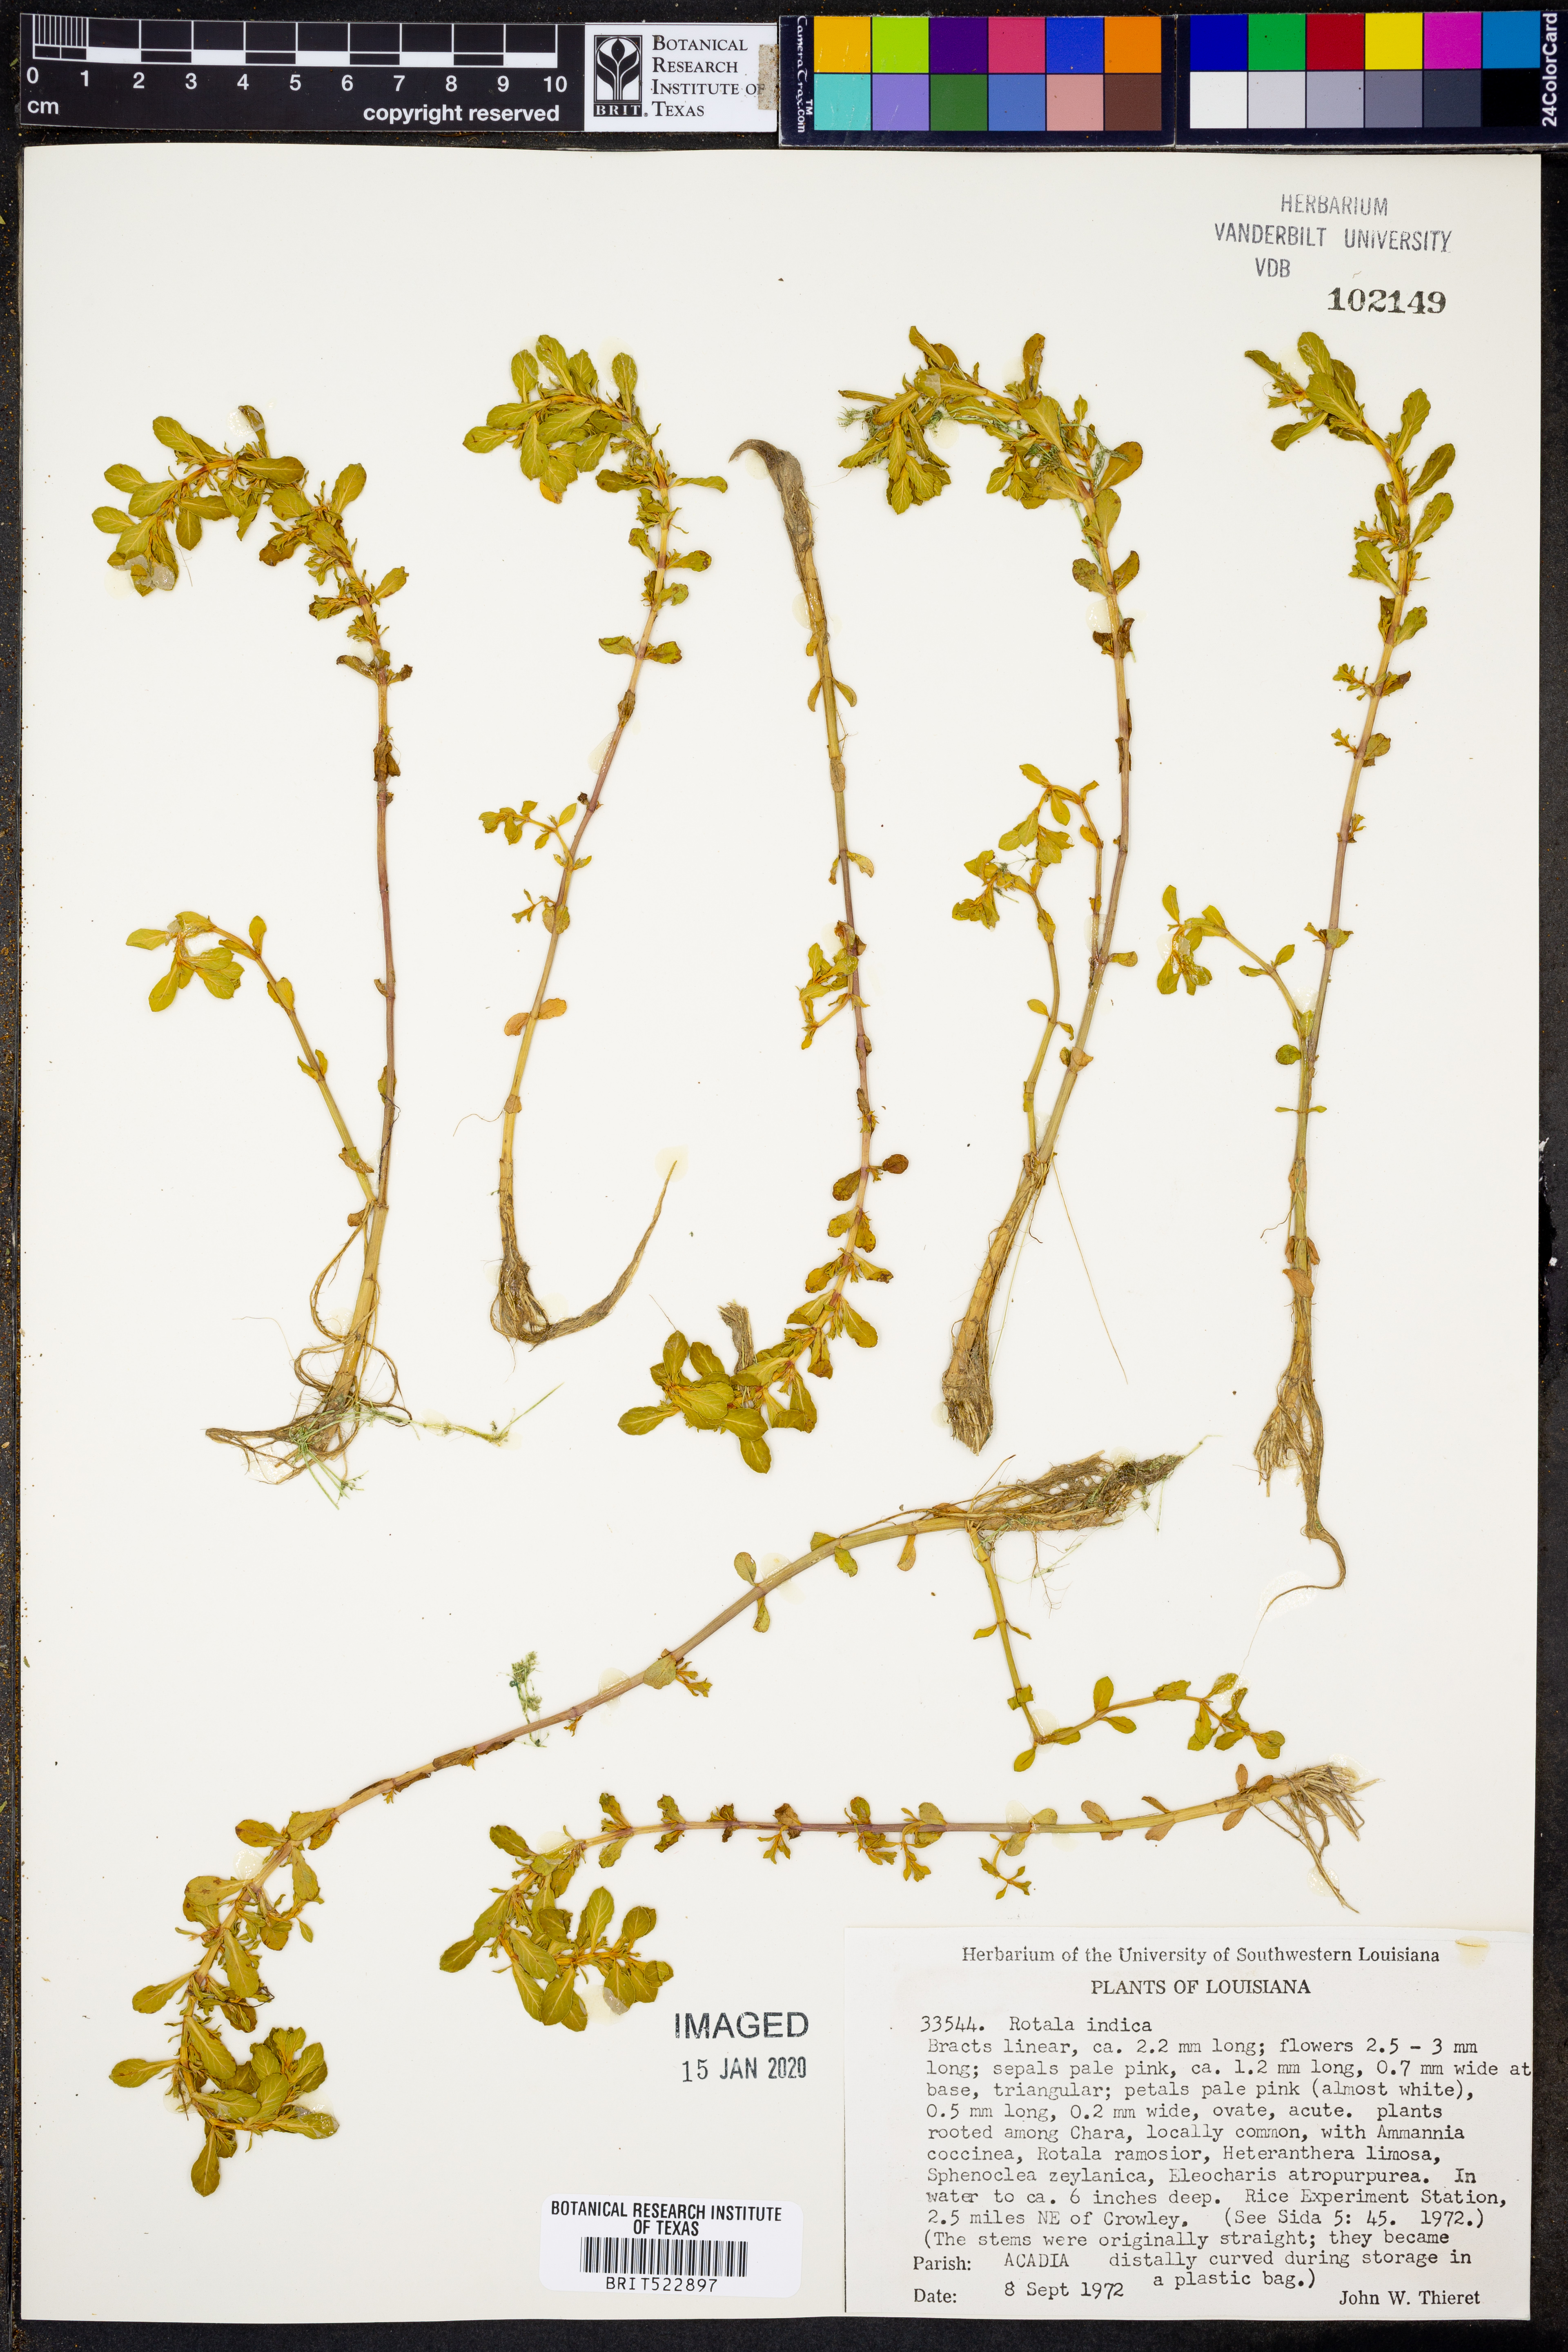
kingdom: Plantae
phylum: Tracheophyta
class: Magnoliopsida
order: Myrtales
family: Lythraceae
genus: Rotala
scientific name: Rotala indica
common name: Indian toothcup
